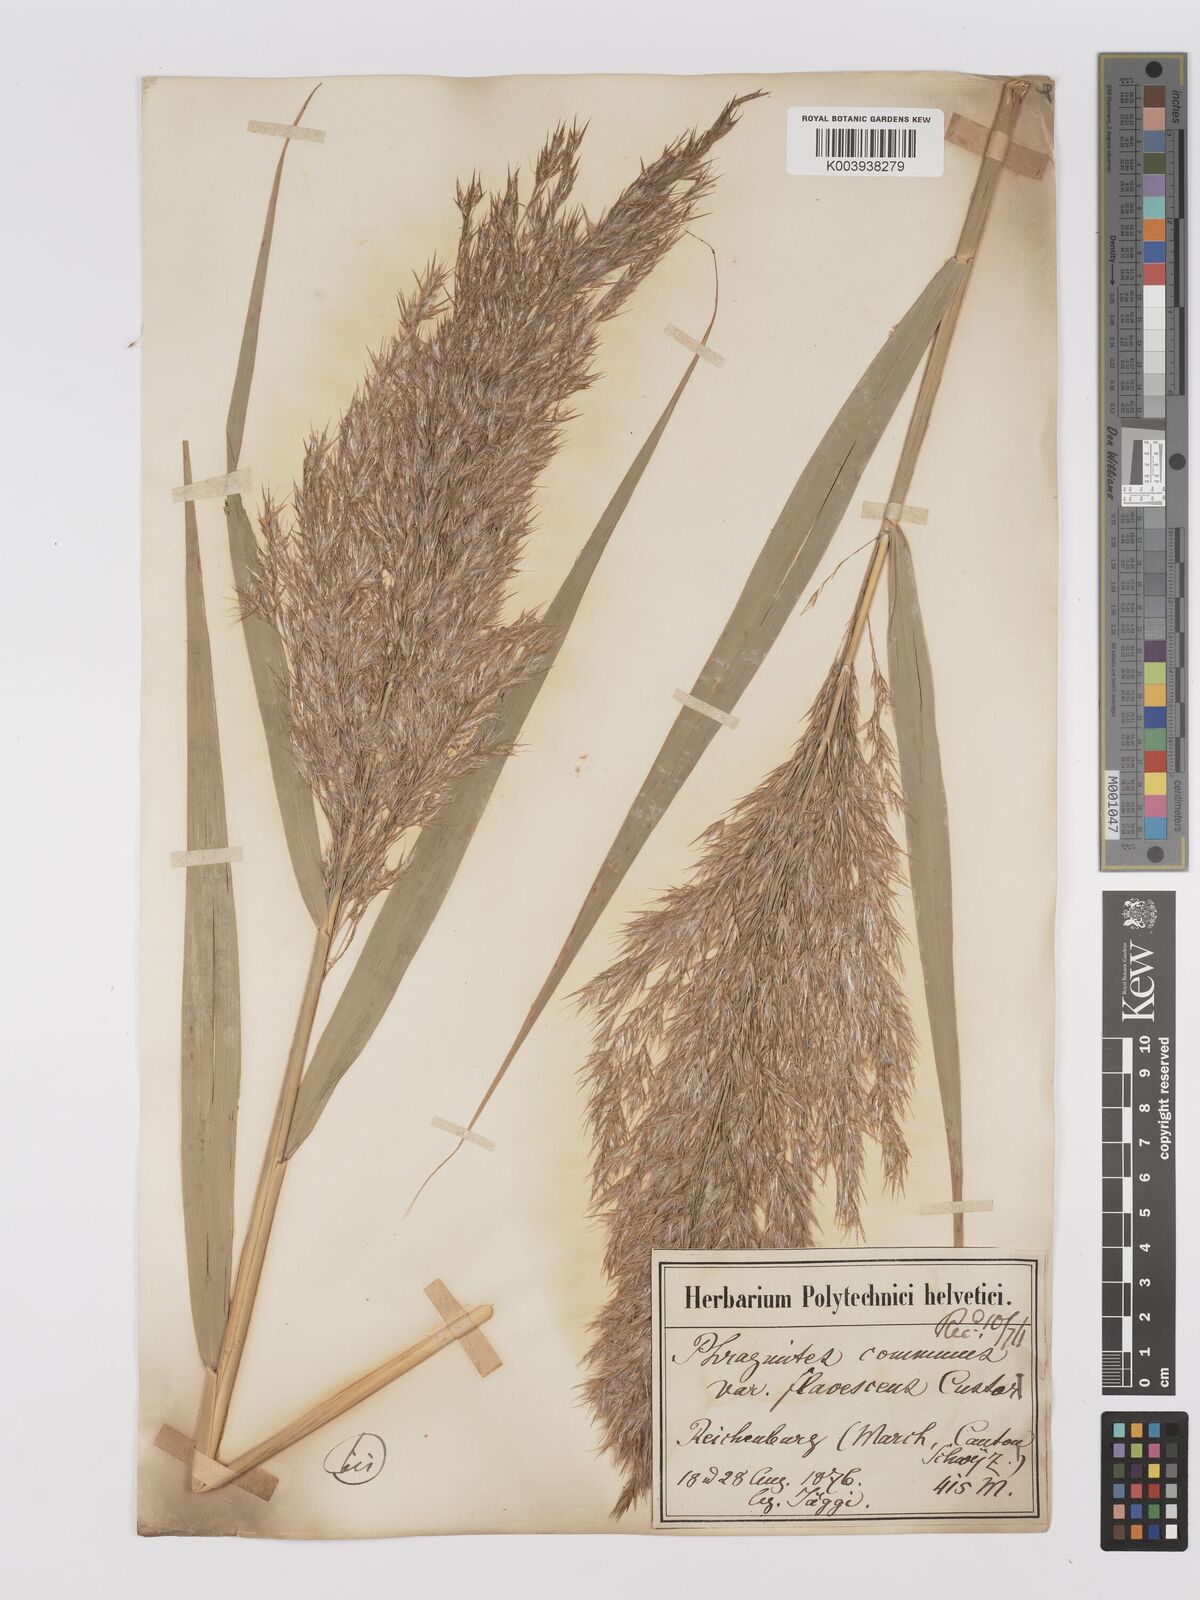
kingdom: Plantae
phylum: Tracheophyta
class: Liliopsida
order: Poales
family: Poaceae
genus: Phragmites
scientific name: Phragmites australis
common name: Common reed
